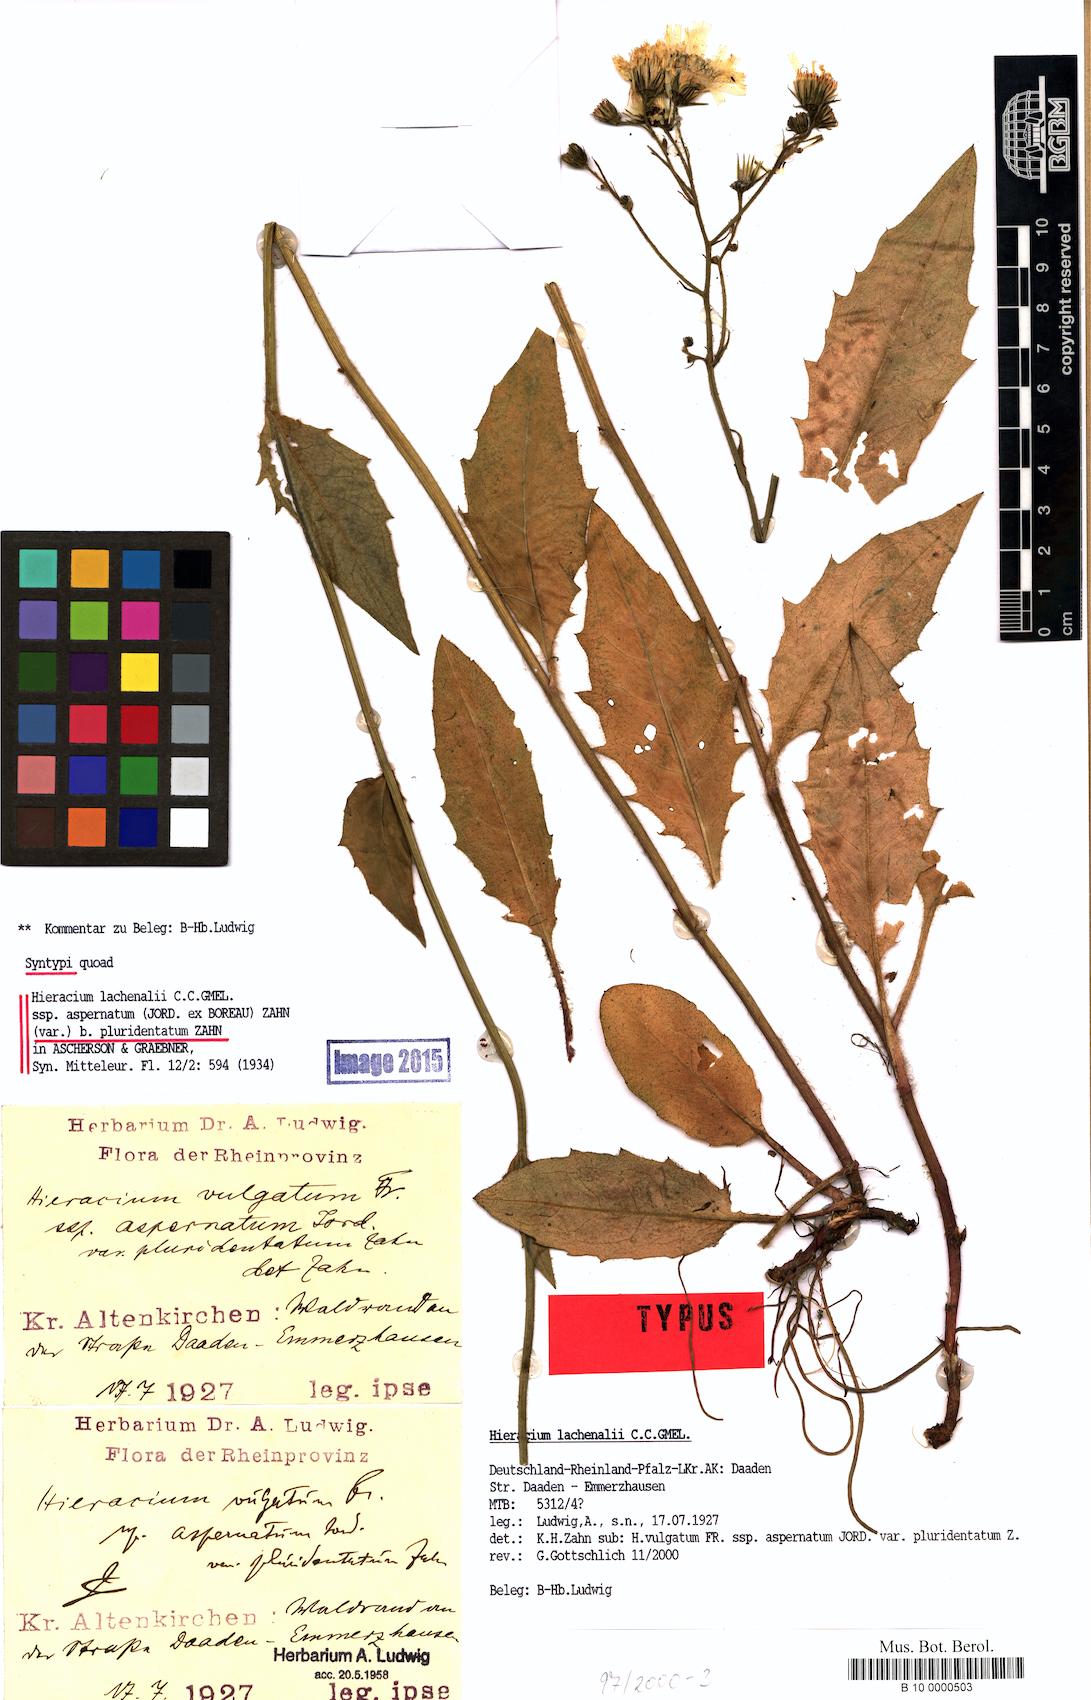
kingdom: Plantae
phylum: Tracheophyta
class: Magnoliopsida
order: Asterales
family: Asteraceae
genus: Hieracium
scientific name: Hieracium lachenalii
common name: Common hawkweed
